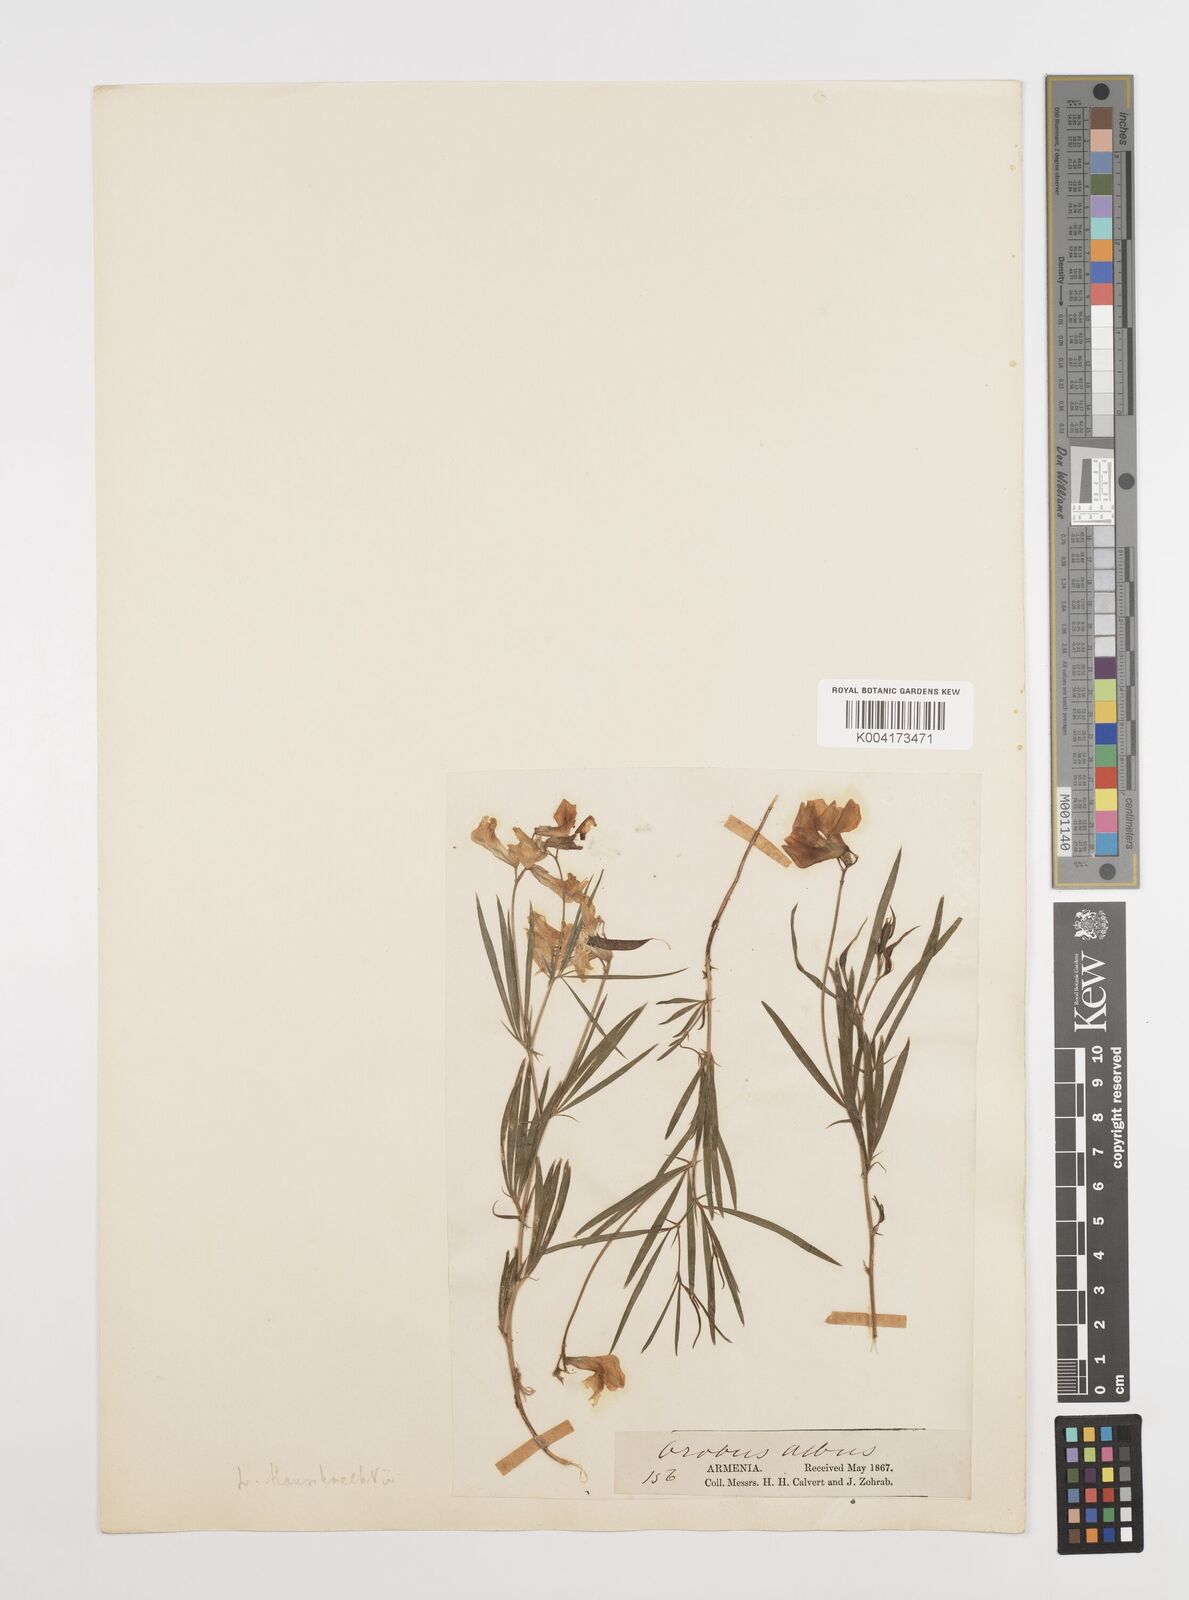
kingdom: Plantae
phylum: Tracheophyta
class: Magnoliopsida
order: Fabales
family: Fabaceae
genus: Lathyrus
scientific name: Lathyrus brachypterus
